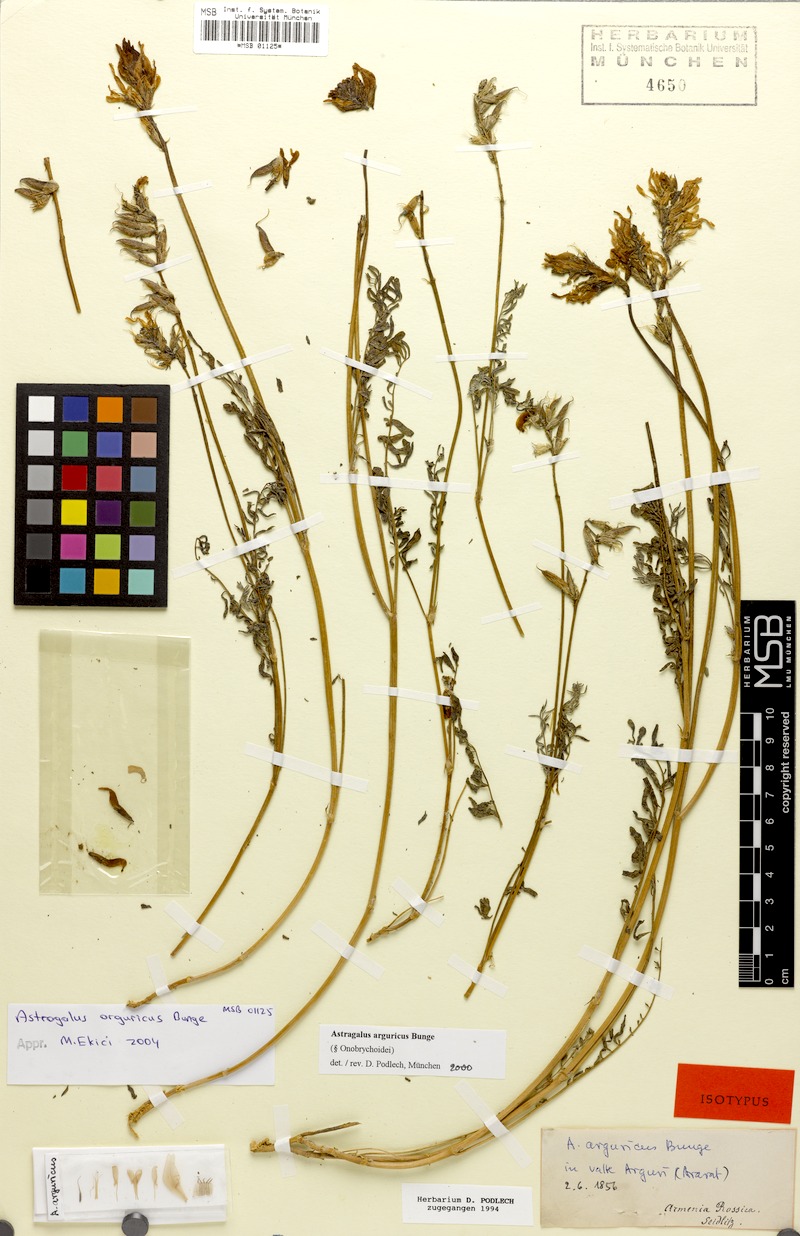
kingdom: Plantae
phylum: Tracheophyta
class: Magnoliopsida
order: Fabales
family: Fabaceae
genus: Astragalus
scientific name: Astragalus arguricus
